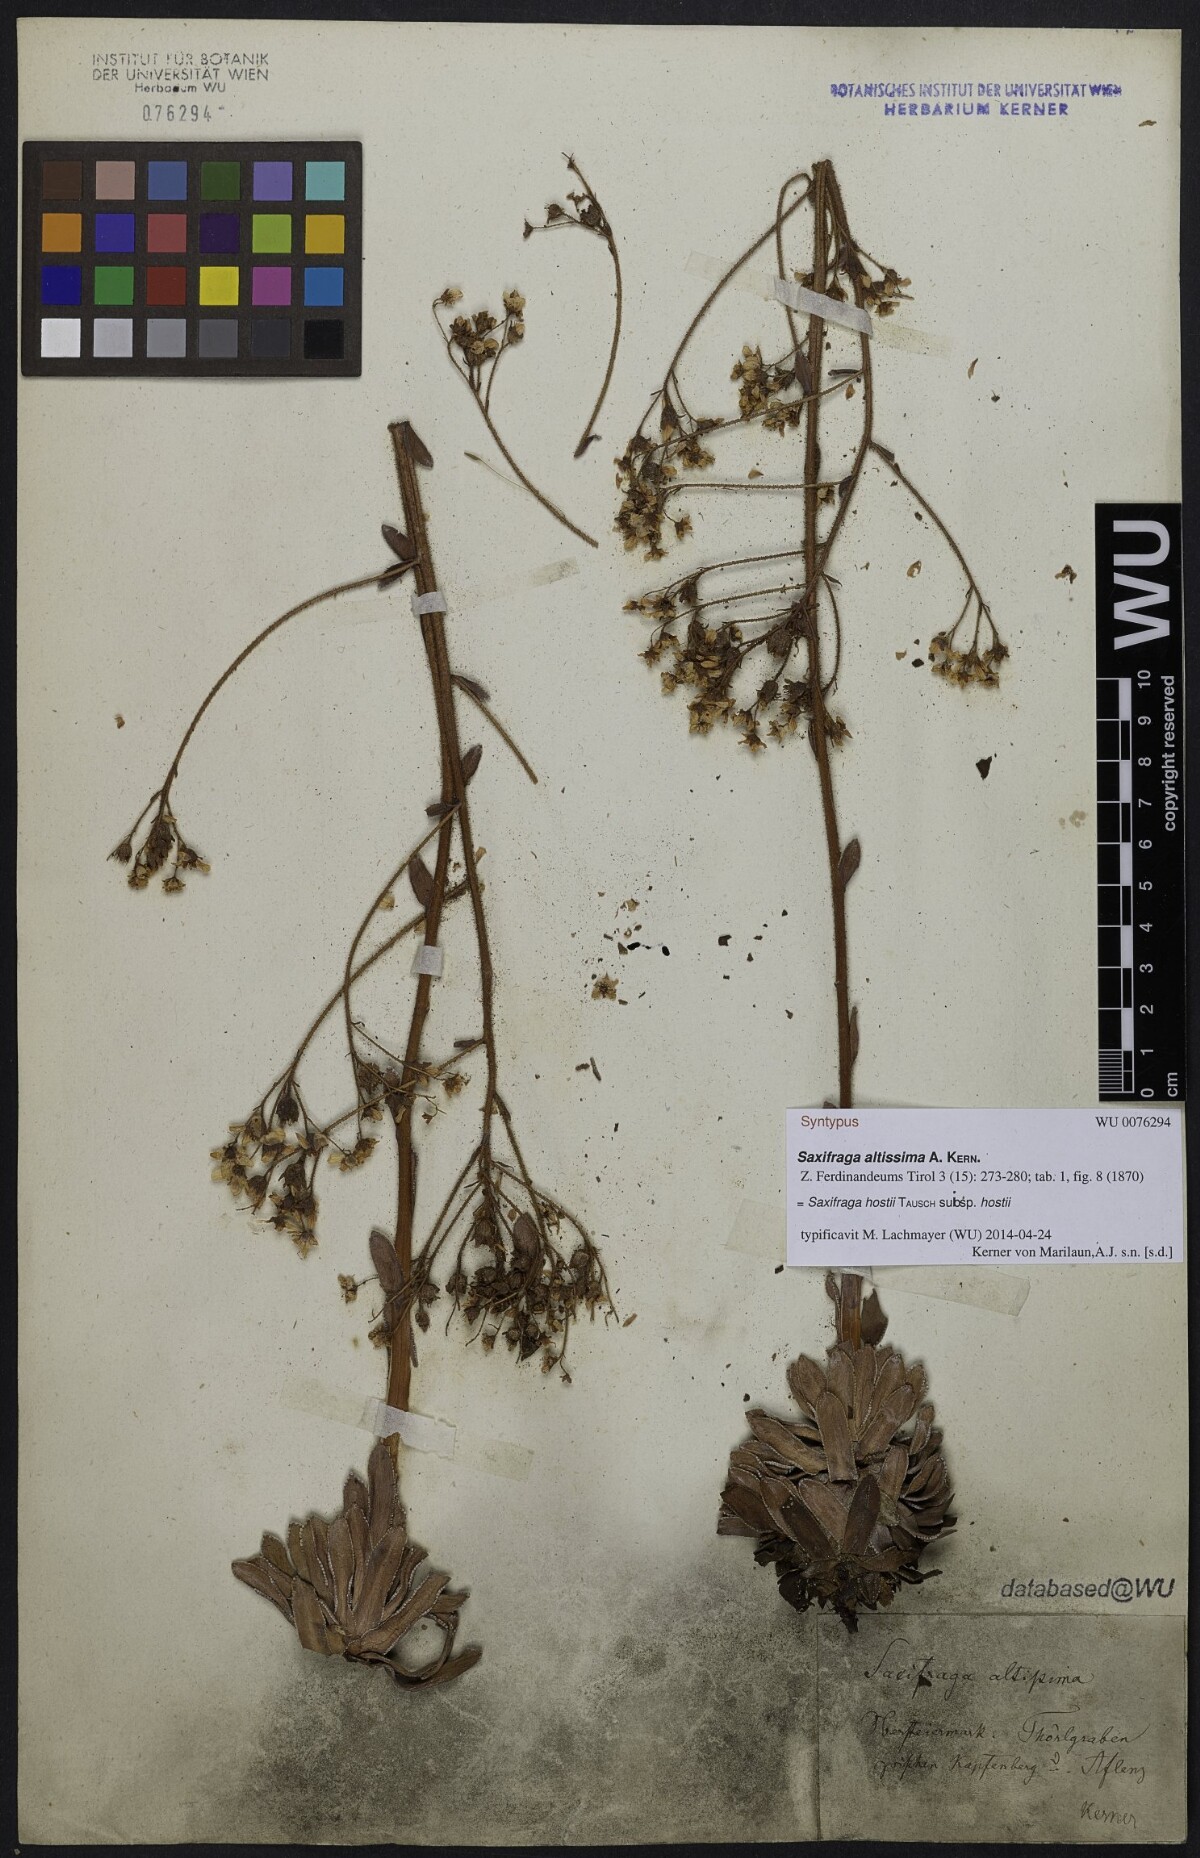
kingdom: Plantae
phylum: Tracheophyta
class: Magnoliopsida
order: Saxifragales
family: Saxifragaceae
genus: Saxifraga
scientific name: Saxifraga hostii
